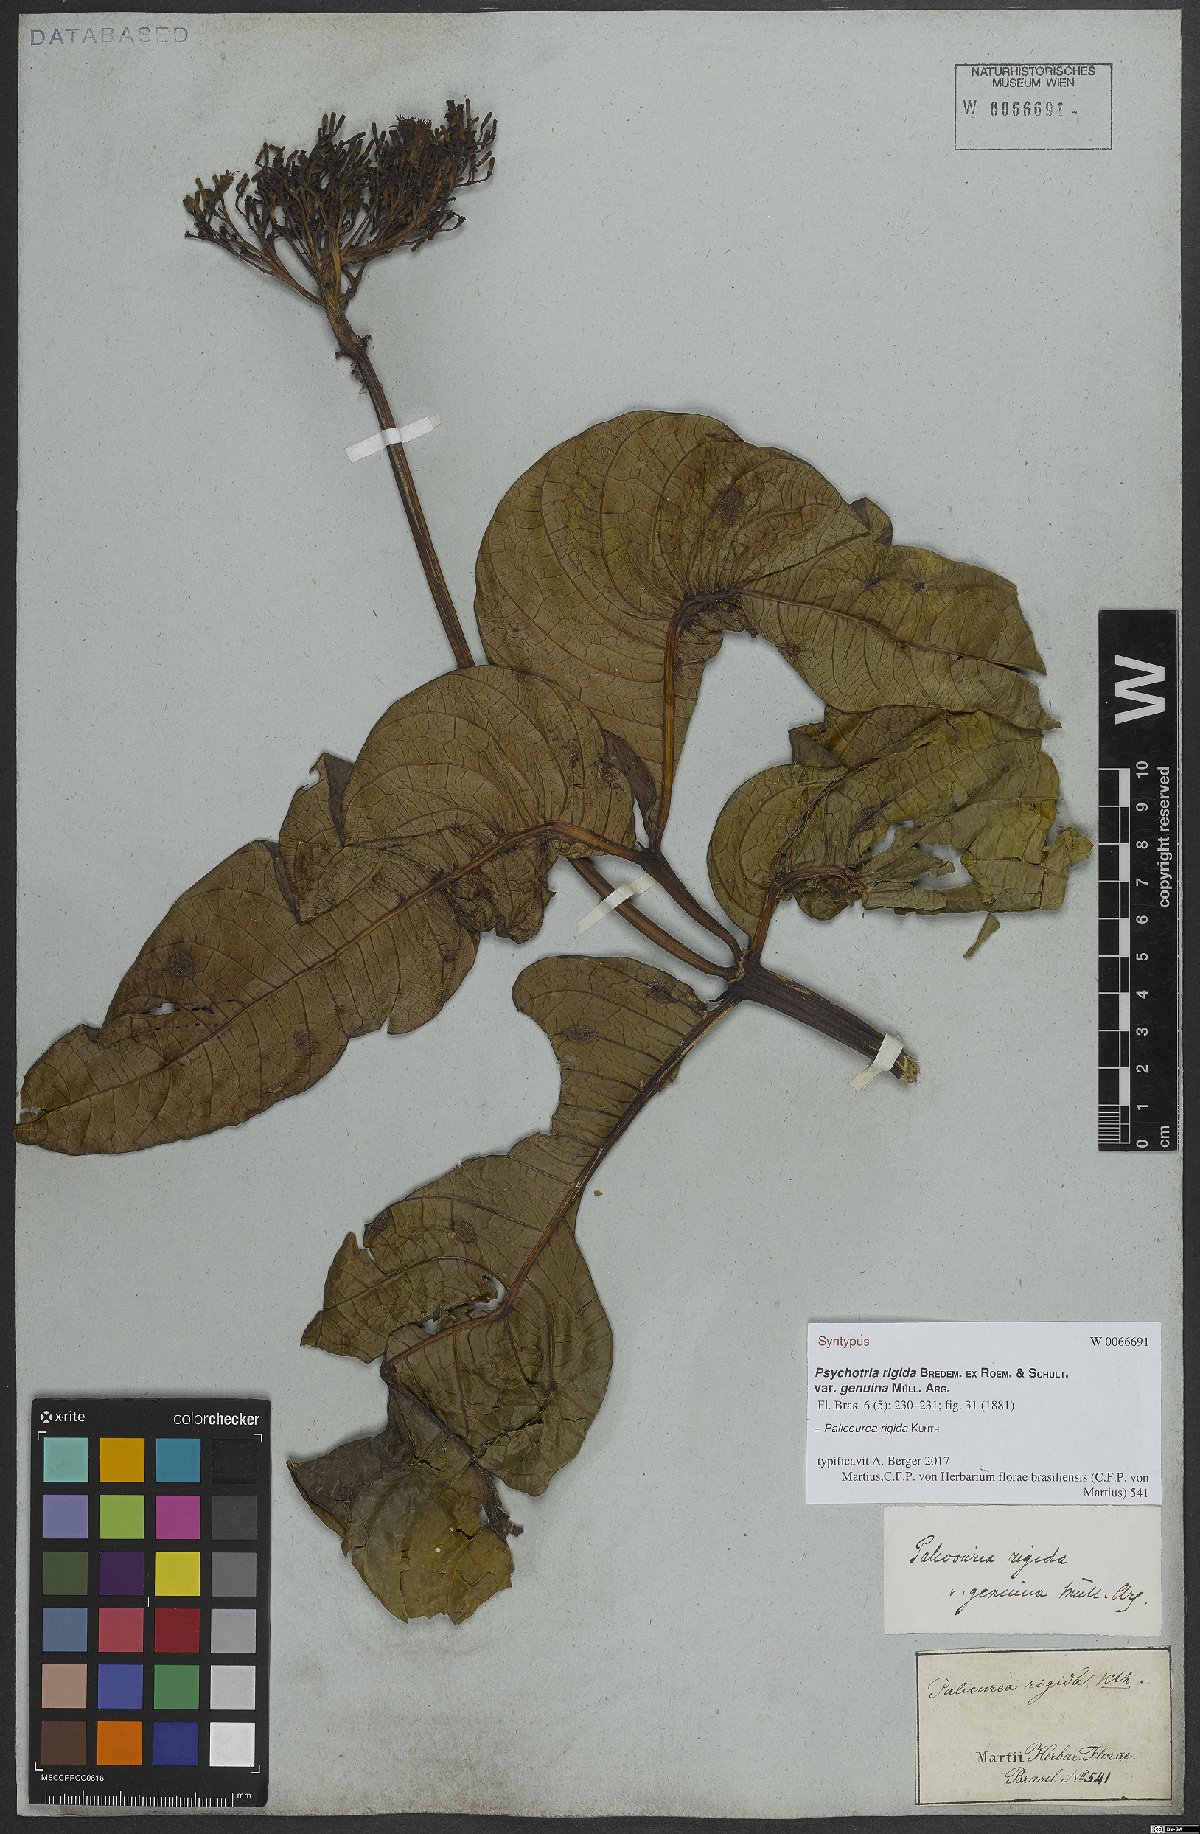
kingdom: Plantae
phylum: Tracheophyta
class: Magnoliopsida
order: Gentianales
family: Rubiaceae
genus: Palicourea
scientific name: Palicourea rigida
